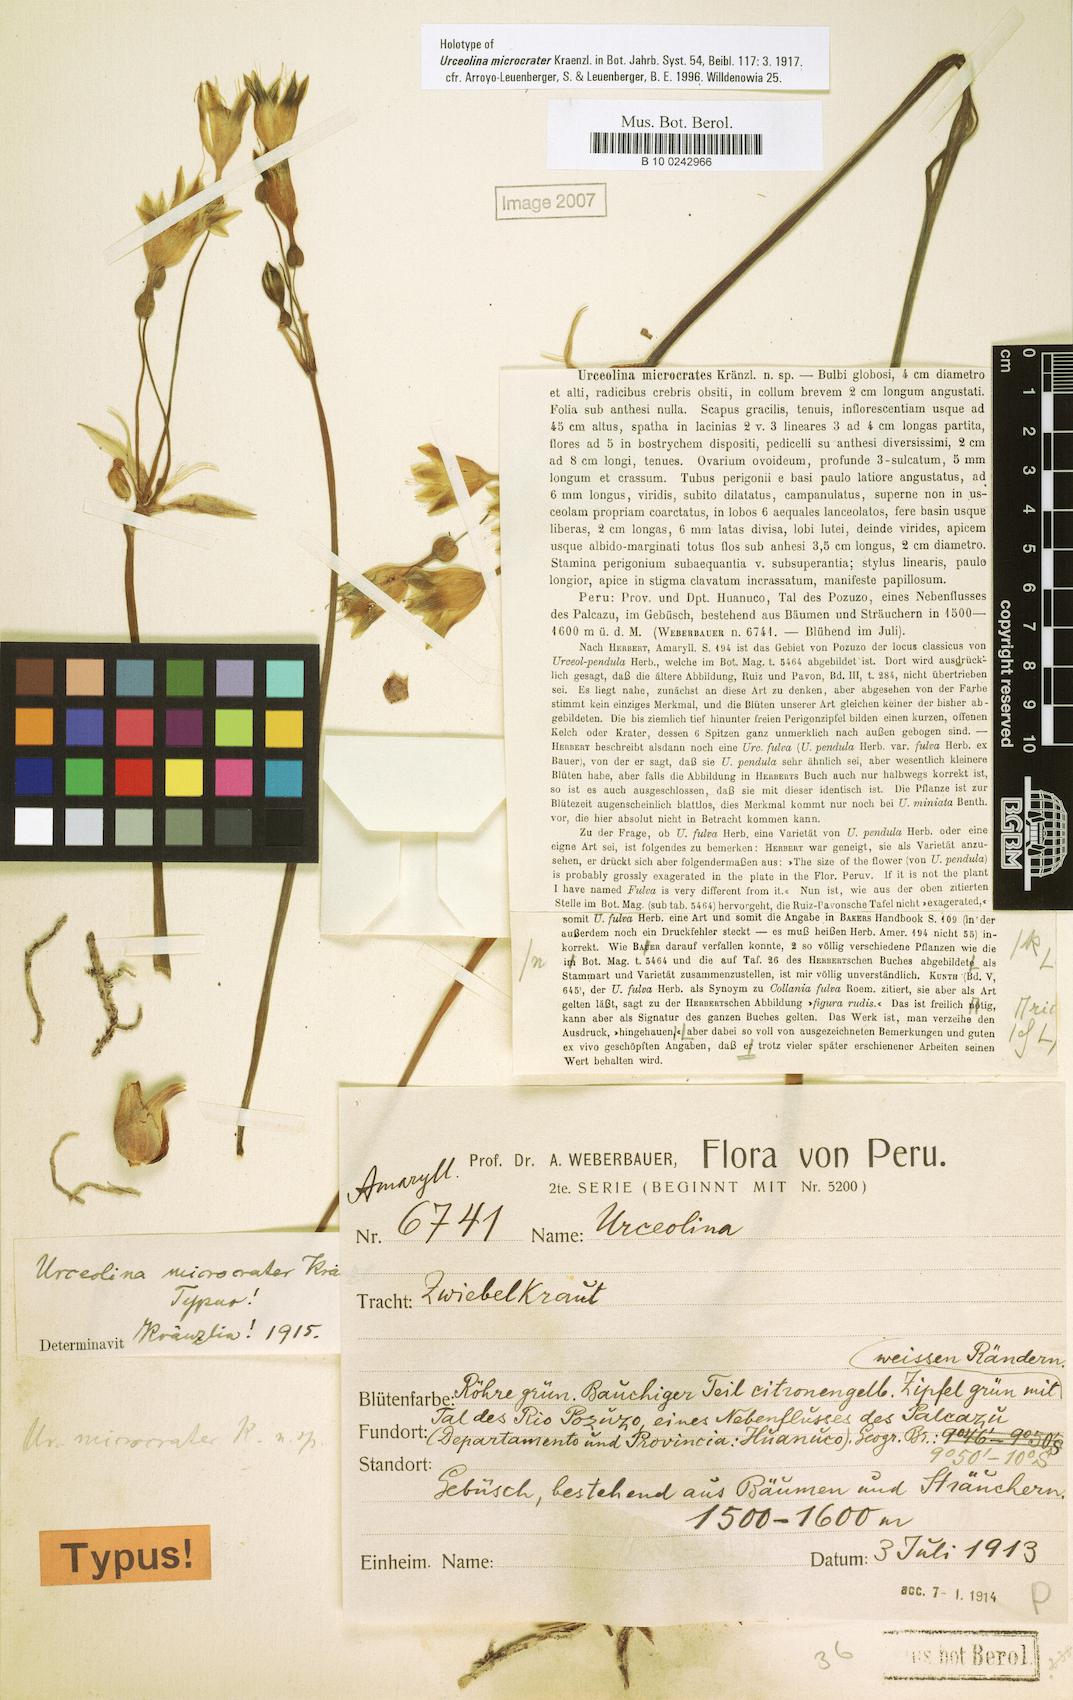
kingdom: Plantae
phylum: Tracheophyta
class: Liliopsida
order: Asparagales
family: Amaryllidaceae
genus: Urceolina
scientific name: Urceolina microcrater
